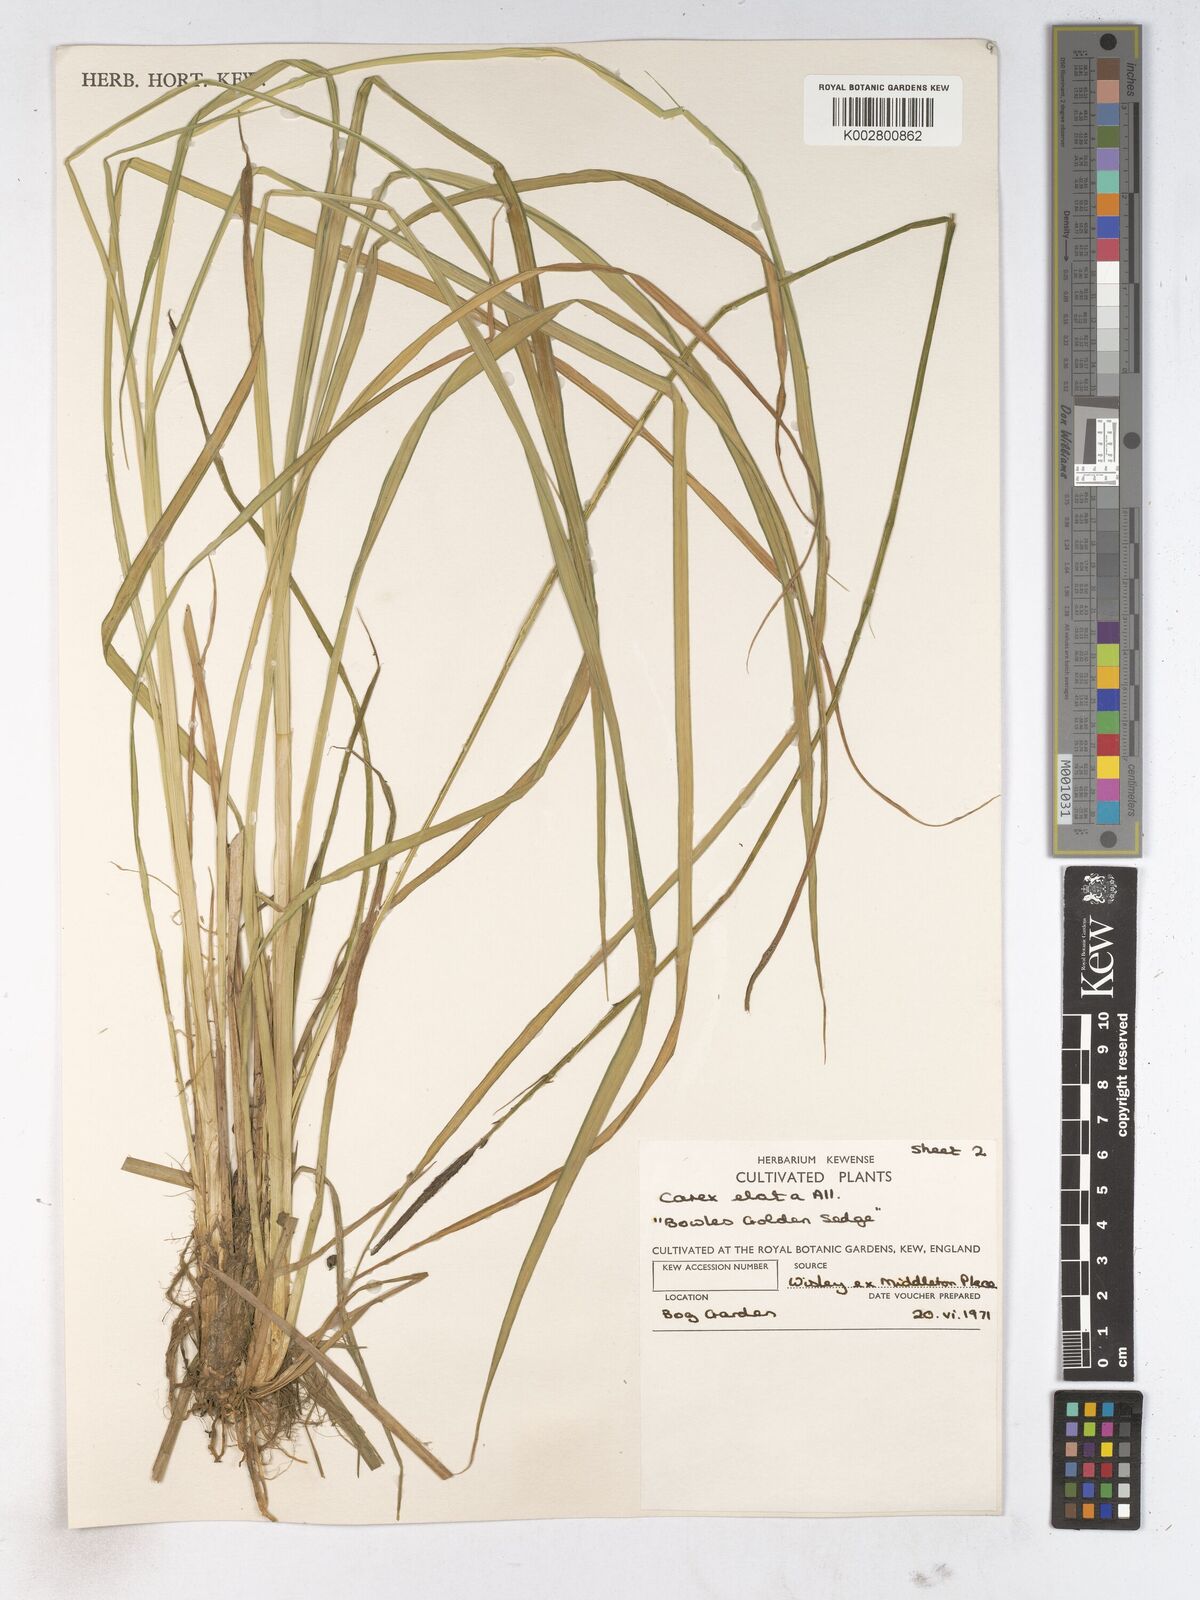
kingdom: Plantae
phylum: Tracheophyta
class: Liliopsida
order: Poales
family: Cyperaceae
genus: Carex
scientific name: Carex elata
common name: Tufted sedge
